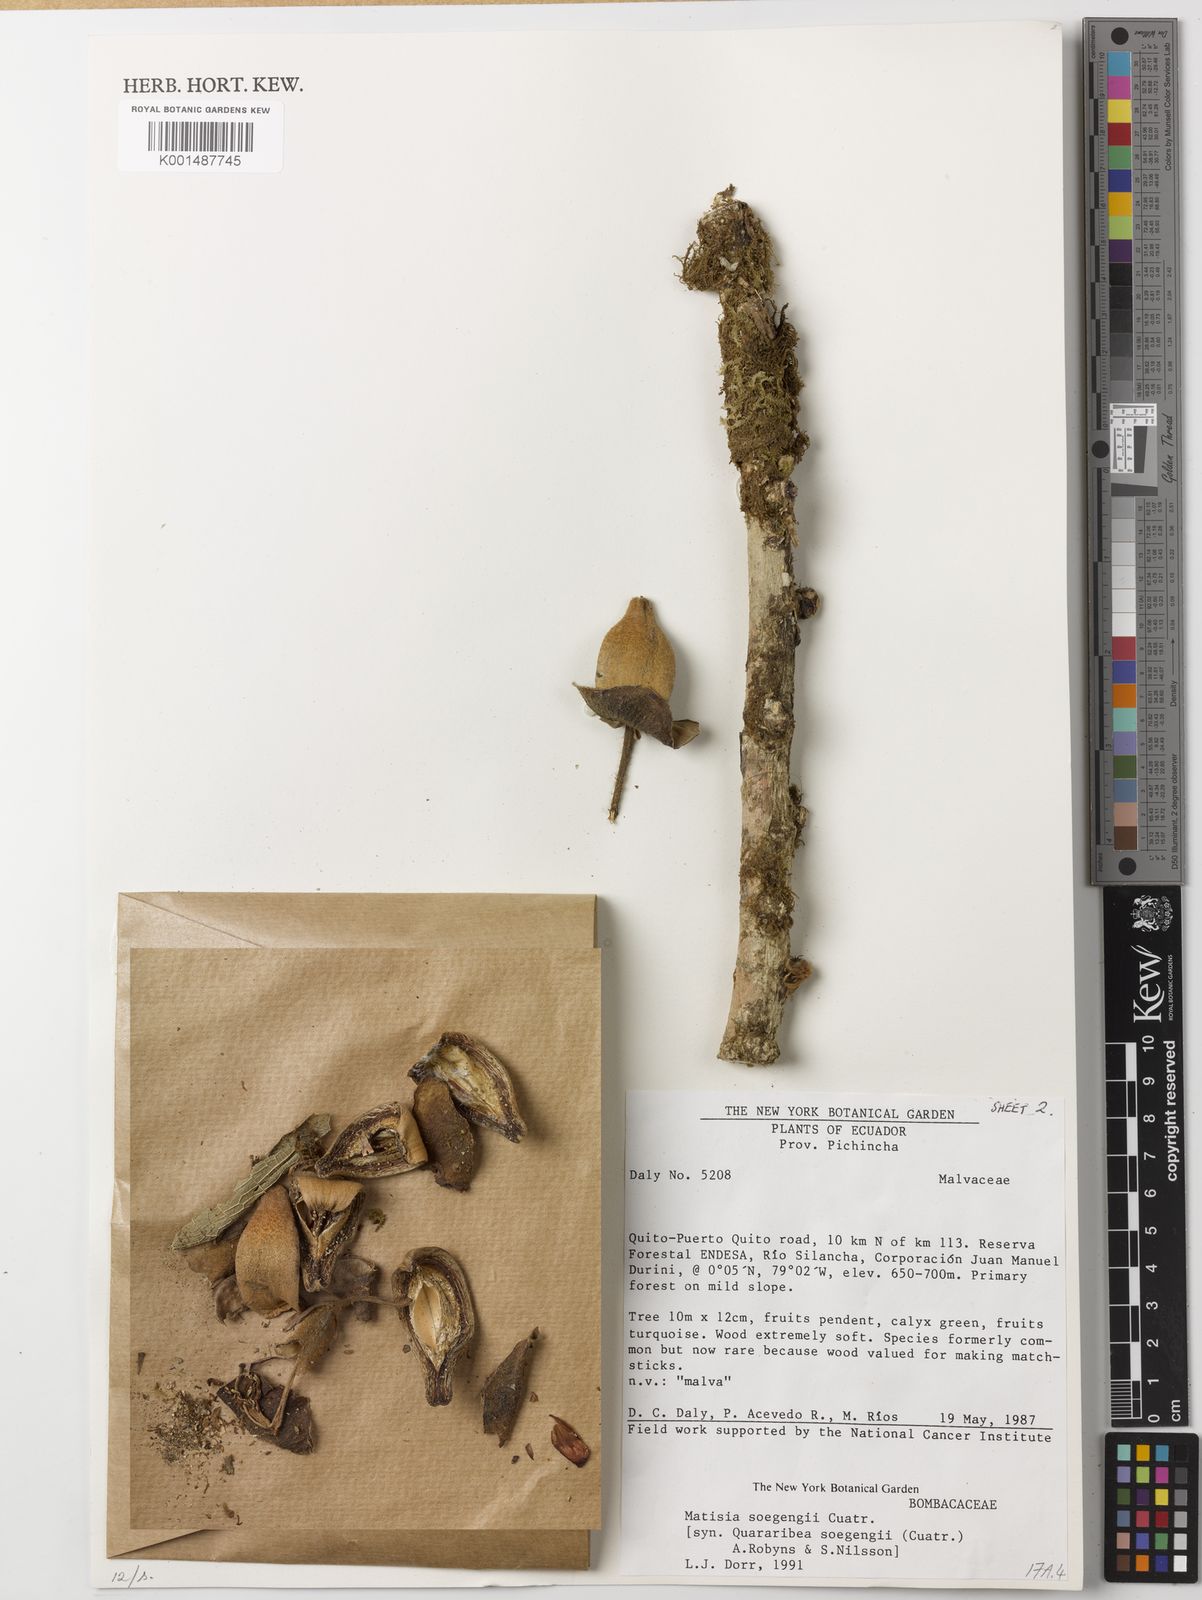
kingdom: Plantae
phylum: Tracheophyta
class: Magnoliopsida
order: Malvales
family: Malvaceae
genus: Matisia
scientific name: Matisia soegengii
